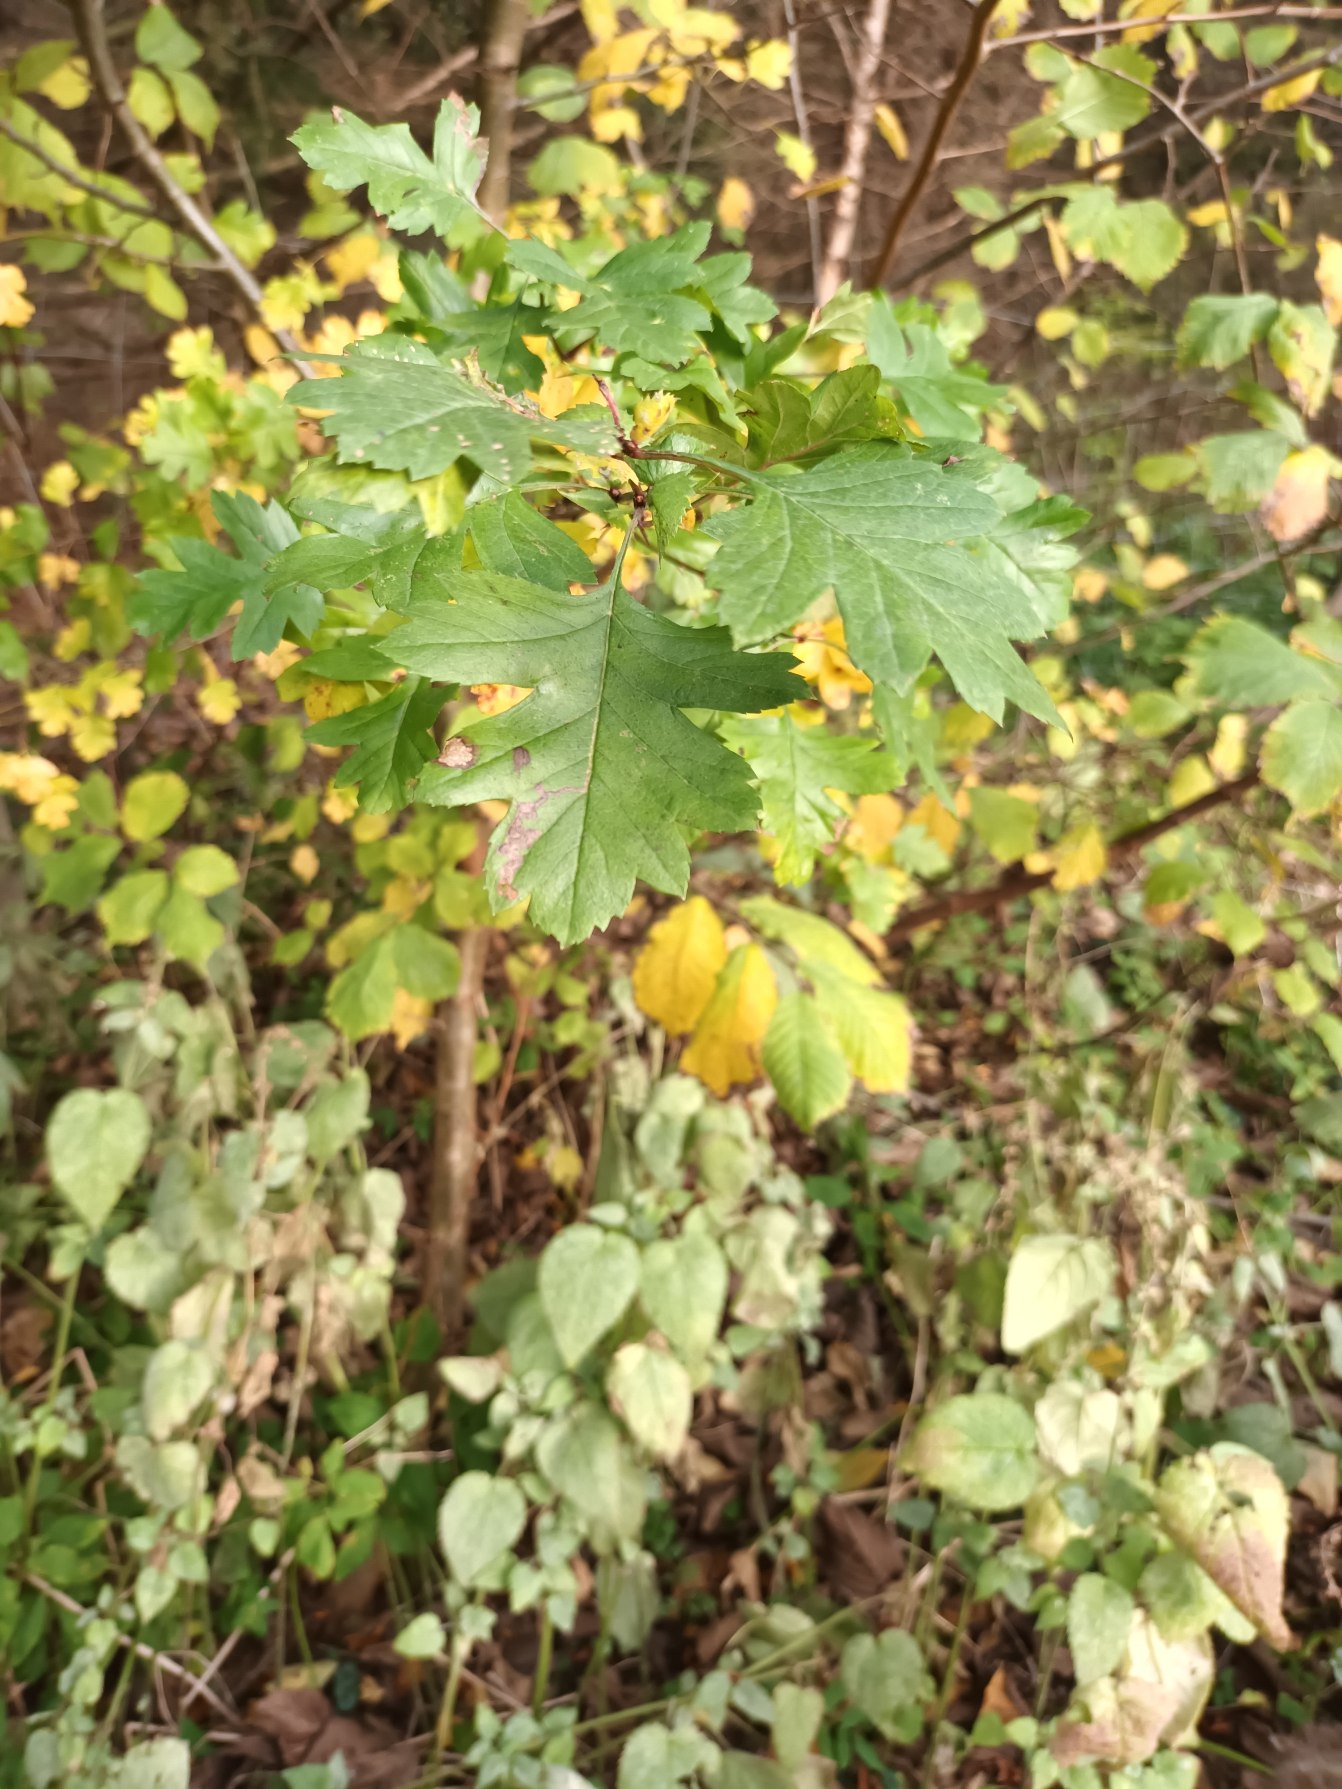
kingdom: Plantae
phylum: Tracheophyta
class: Magnoliopsida
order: Rosales
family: Rosaceae
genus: Crataegus
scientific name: Crataegus monogyna
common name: Engriflet hvidtjørn
